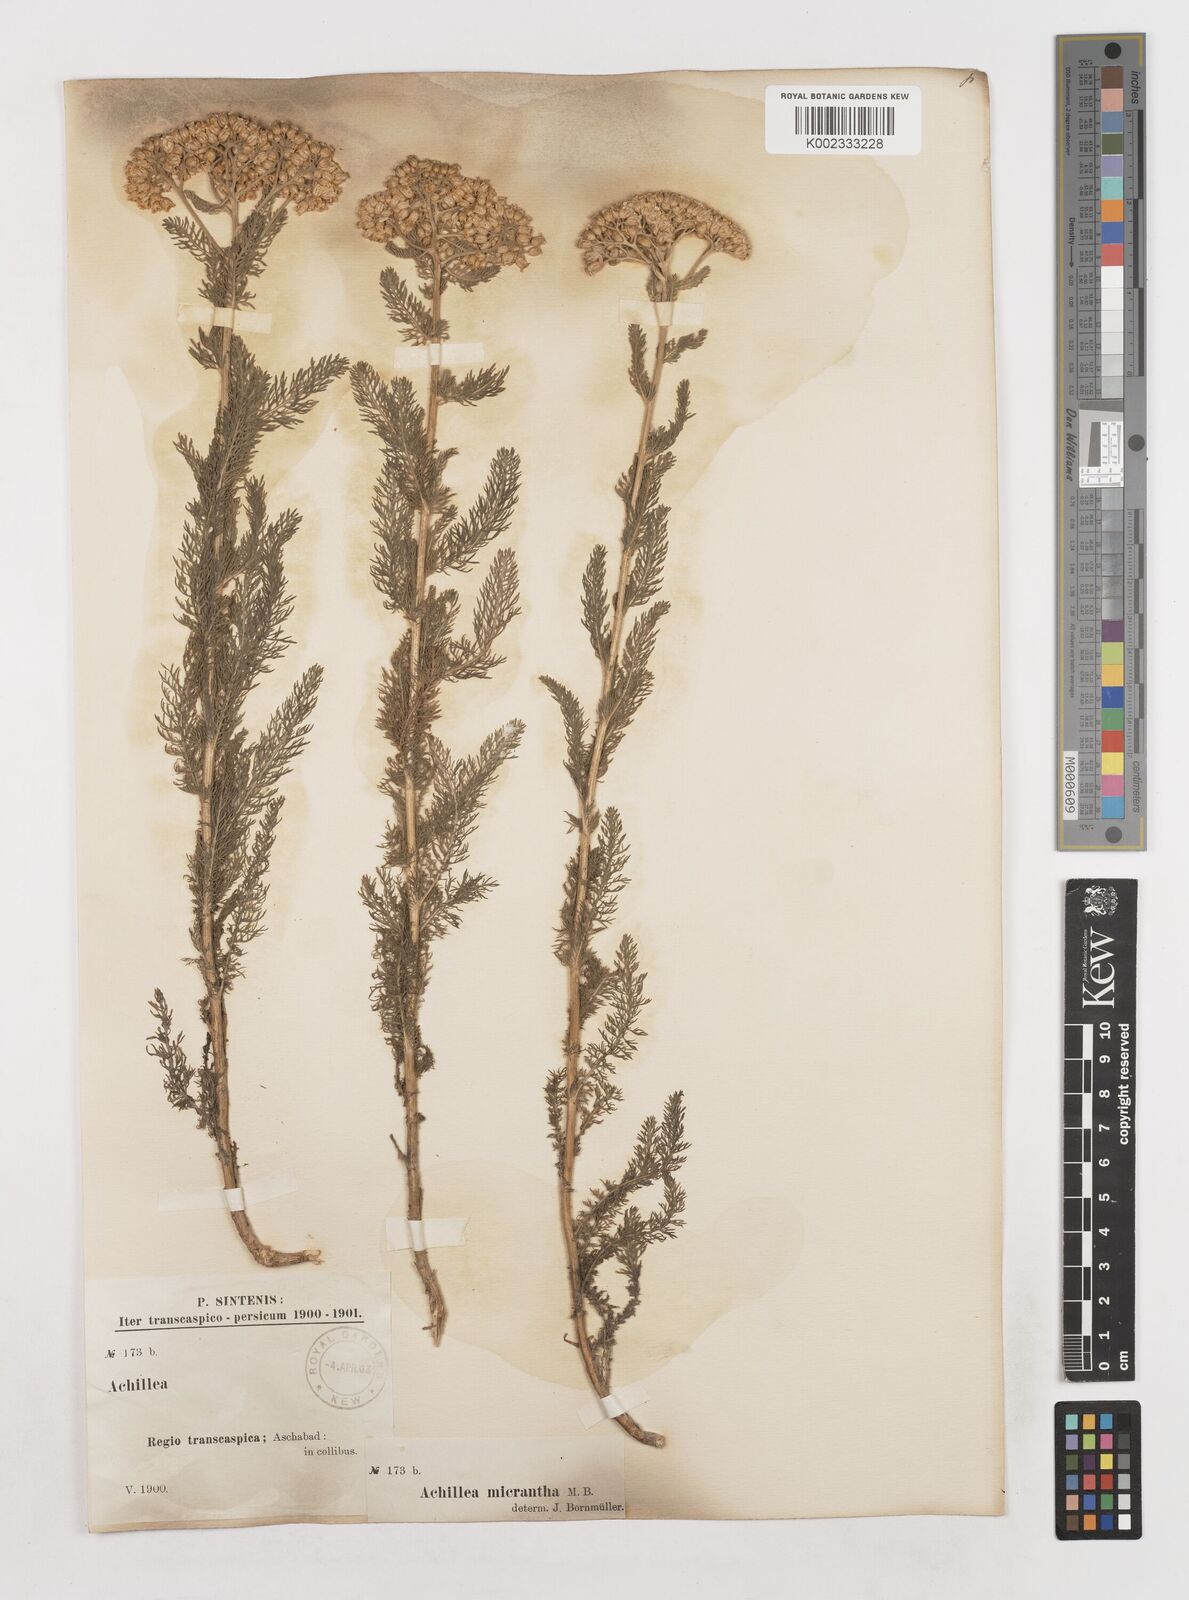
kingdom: Plantae
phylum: Tracheophyta
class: Magnoliopsida
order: Asterales
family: Asteraceae
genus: Achillea
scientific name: Achillea micrantha
